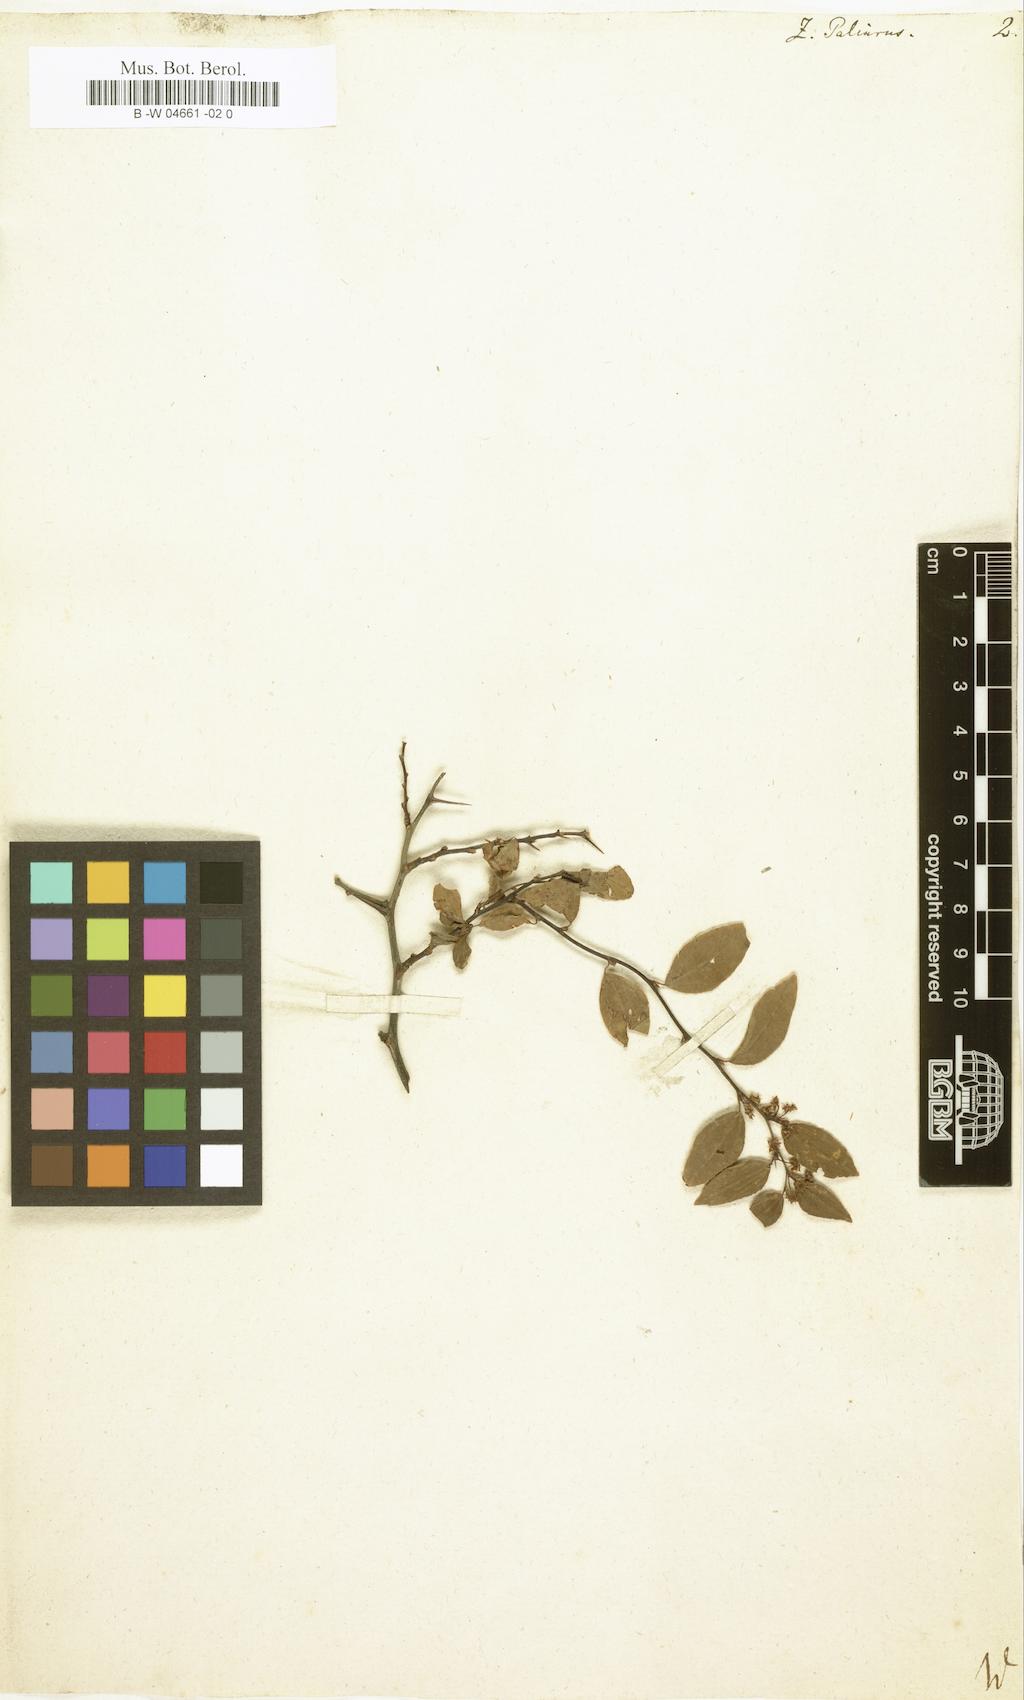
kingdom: Plantae
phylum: Tracheophyta
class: Magnoliopsida
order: Rosales
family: Rhamnaceae
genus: Paliurus
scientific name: Paliurus spina-christi
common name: Jeruselem thorn
